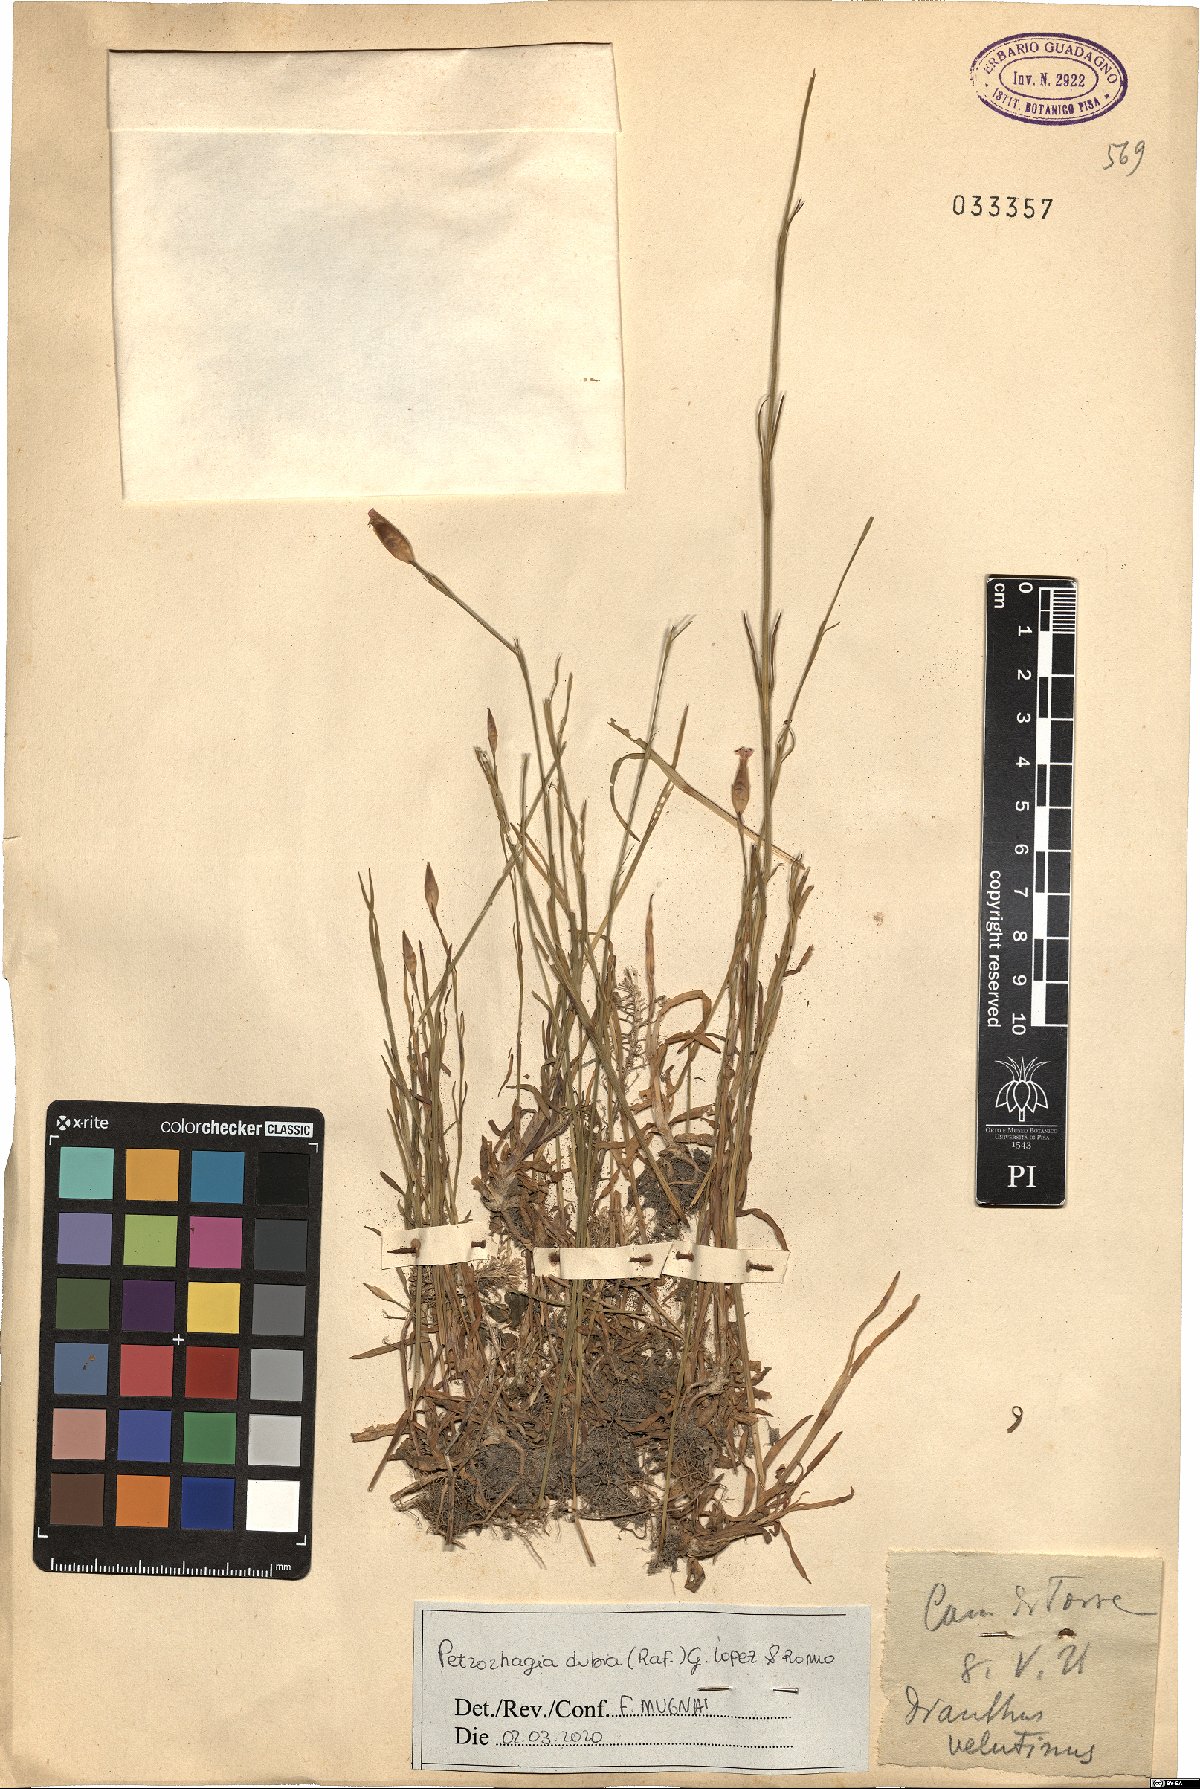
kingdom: Plantae
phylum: Tracheophyta
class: Magnoliopsida
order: Caryophyllales
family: Caryophyllaceae
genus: Petrorhagia
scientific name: Petrorhagia dubia
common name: Hairypink
